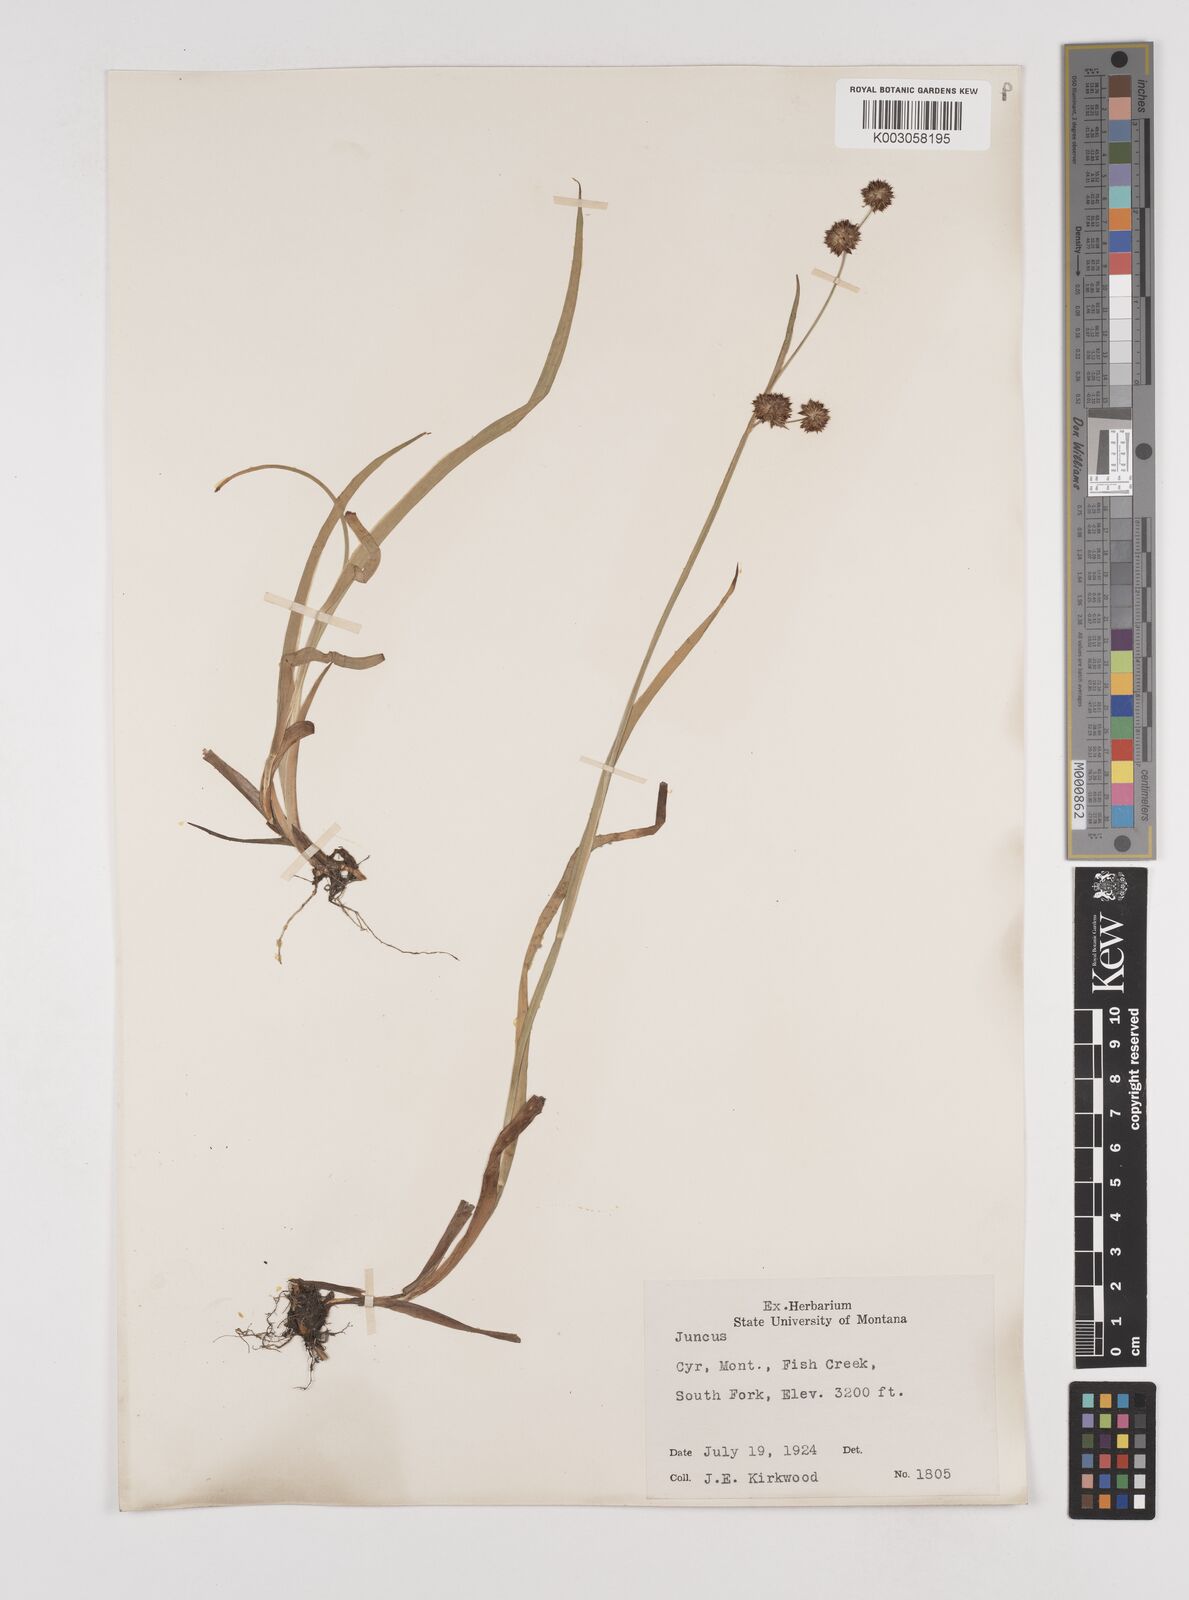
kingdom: Plantae
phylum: Tracheophyta
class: Liliopsida
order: Poales
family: Juncaceae
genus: Juncus
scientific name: Juncus
